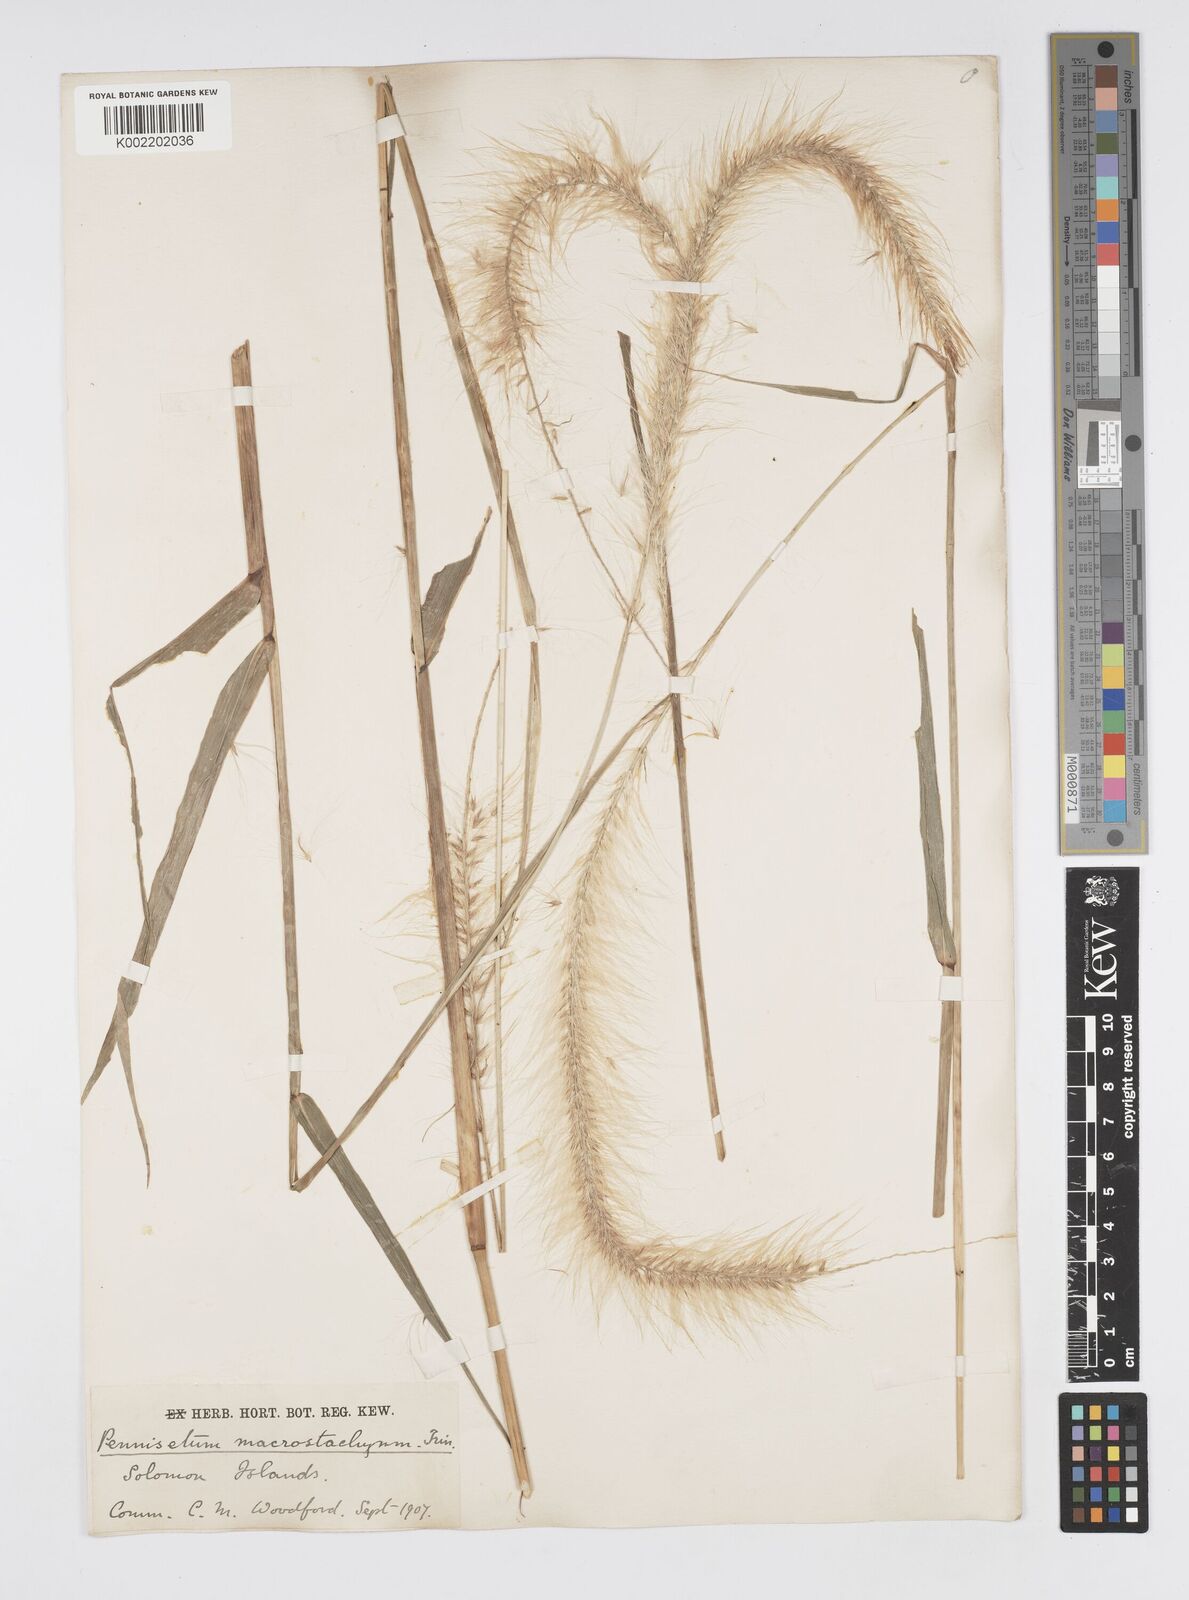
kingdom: Plantae
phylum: Tracheophyta
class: Liliopsida
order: Poales
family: Poaceae
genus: Cenchrus
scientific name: Cenchrus purpureus
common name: Elephant grass
